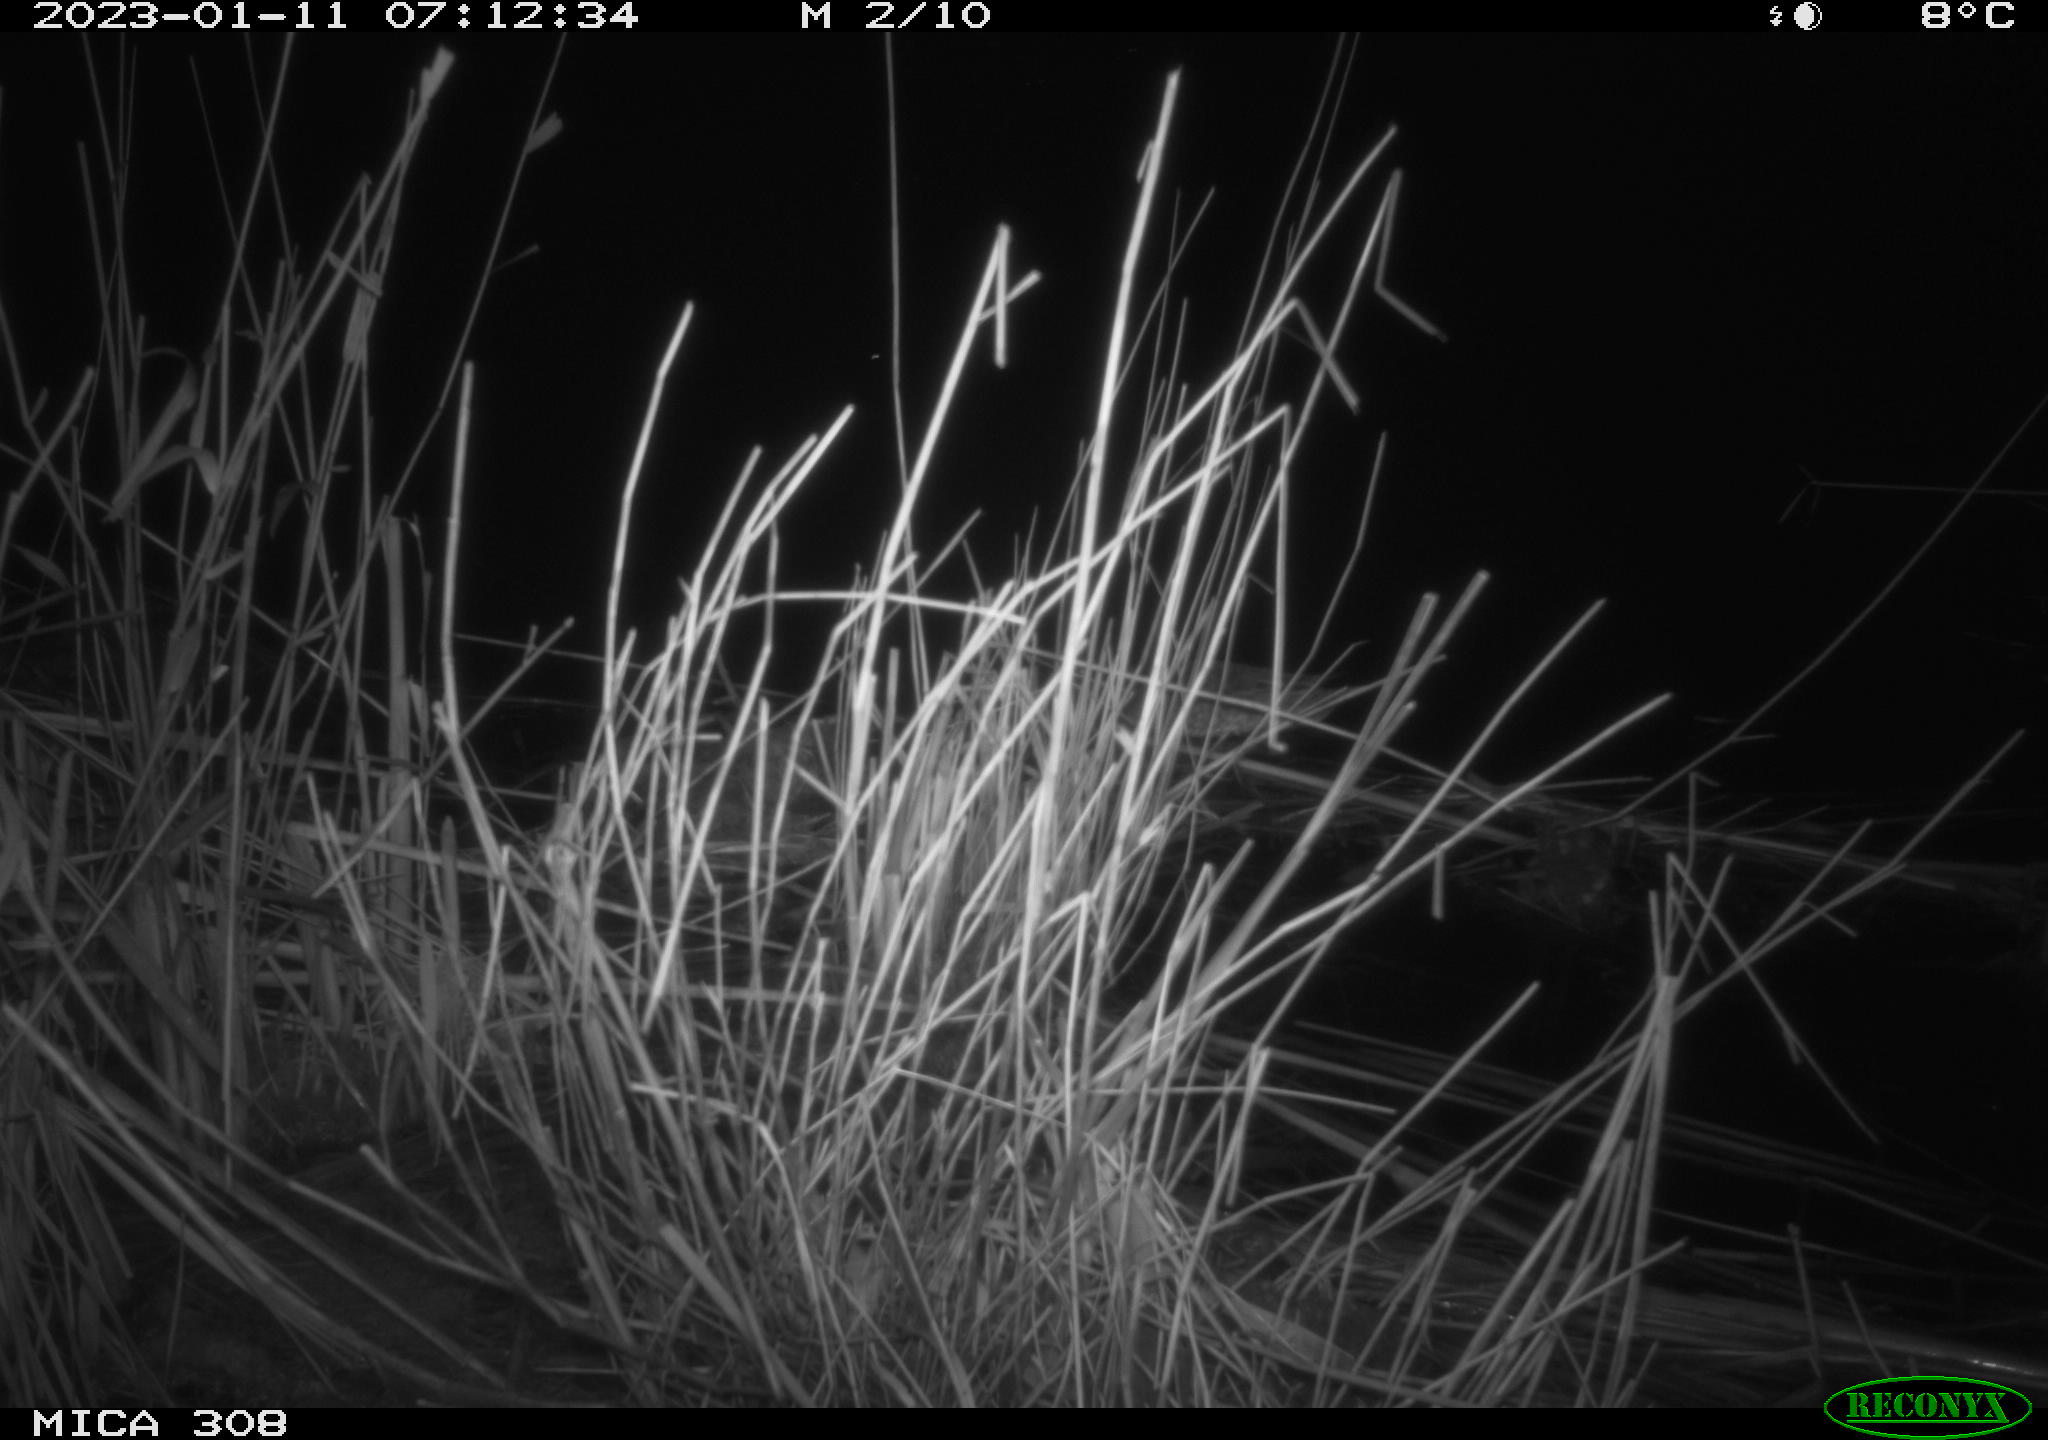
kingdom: Animalia
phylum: Chordata
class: Mammalia
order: Rodentia
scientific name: Rodentia
